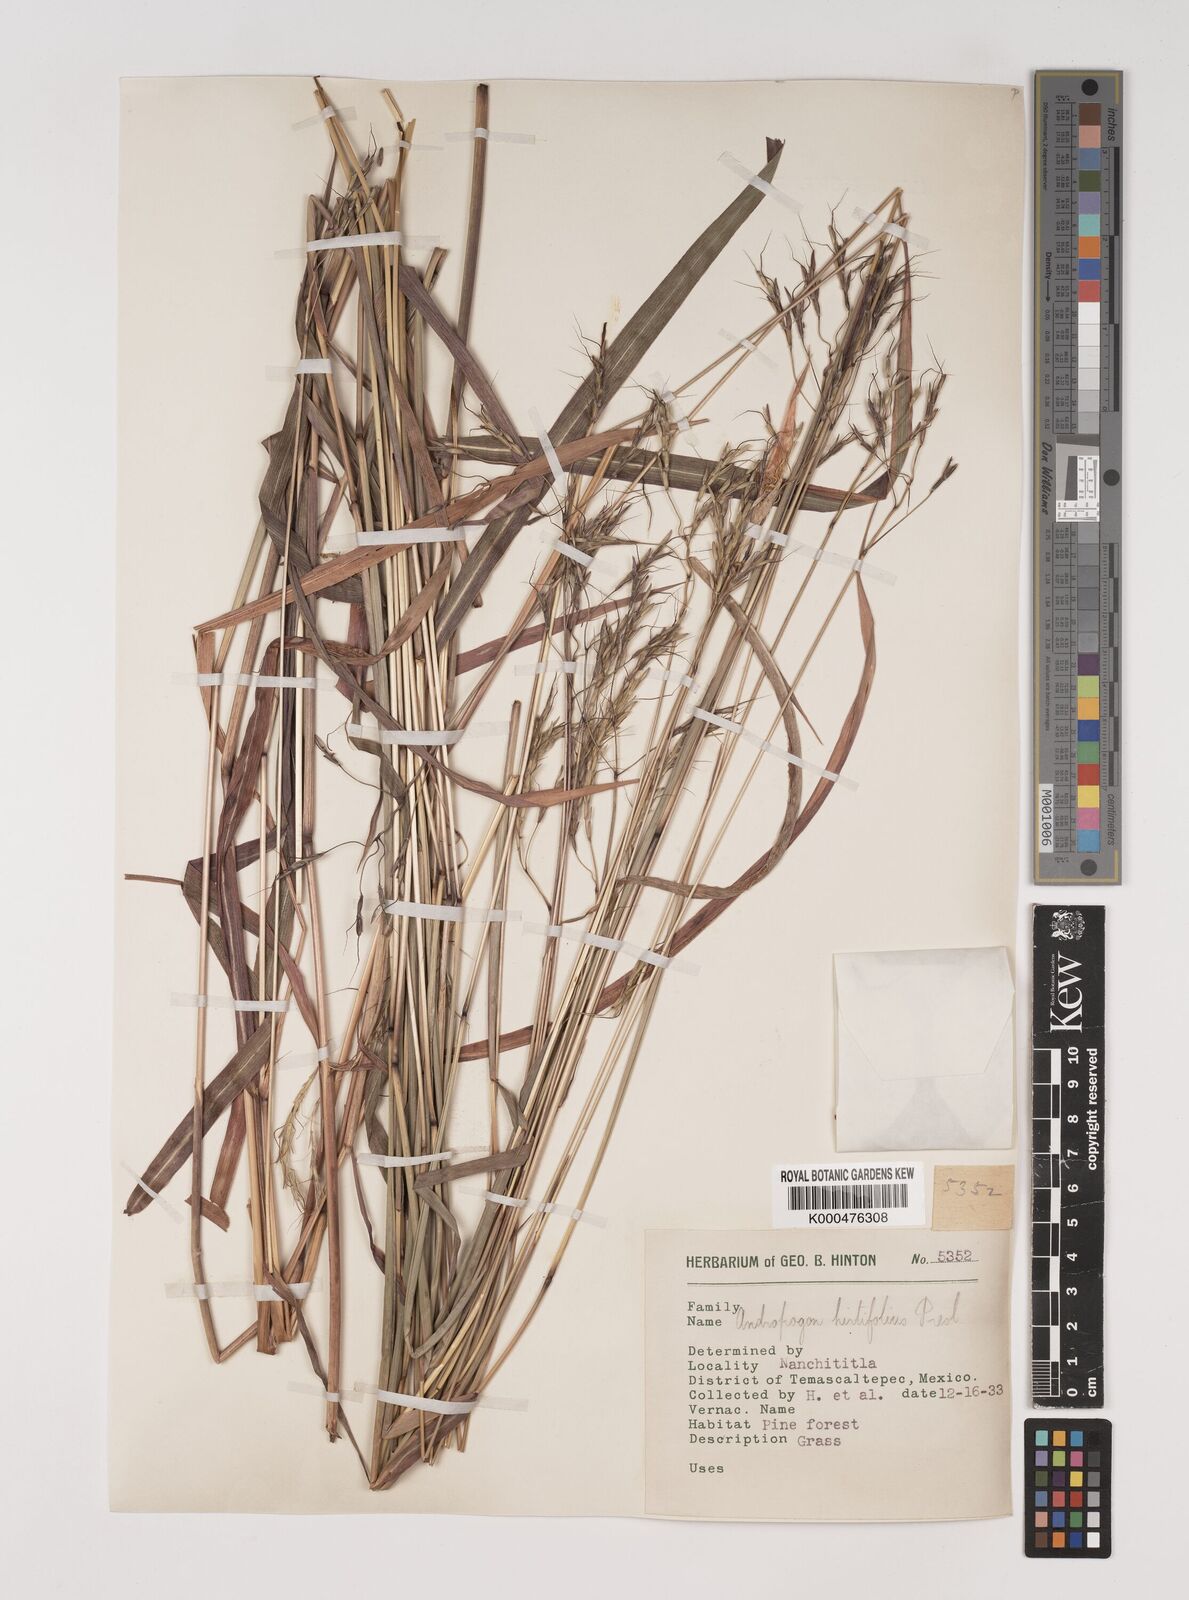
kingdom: Plantae
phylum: Tracheophyta
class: Liliopsida
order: Poales
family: Poaceae
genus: Bothriochloa
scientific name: Bothriochloa hirtifolia
